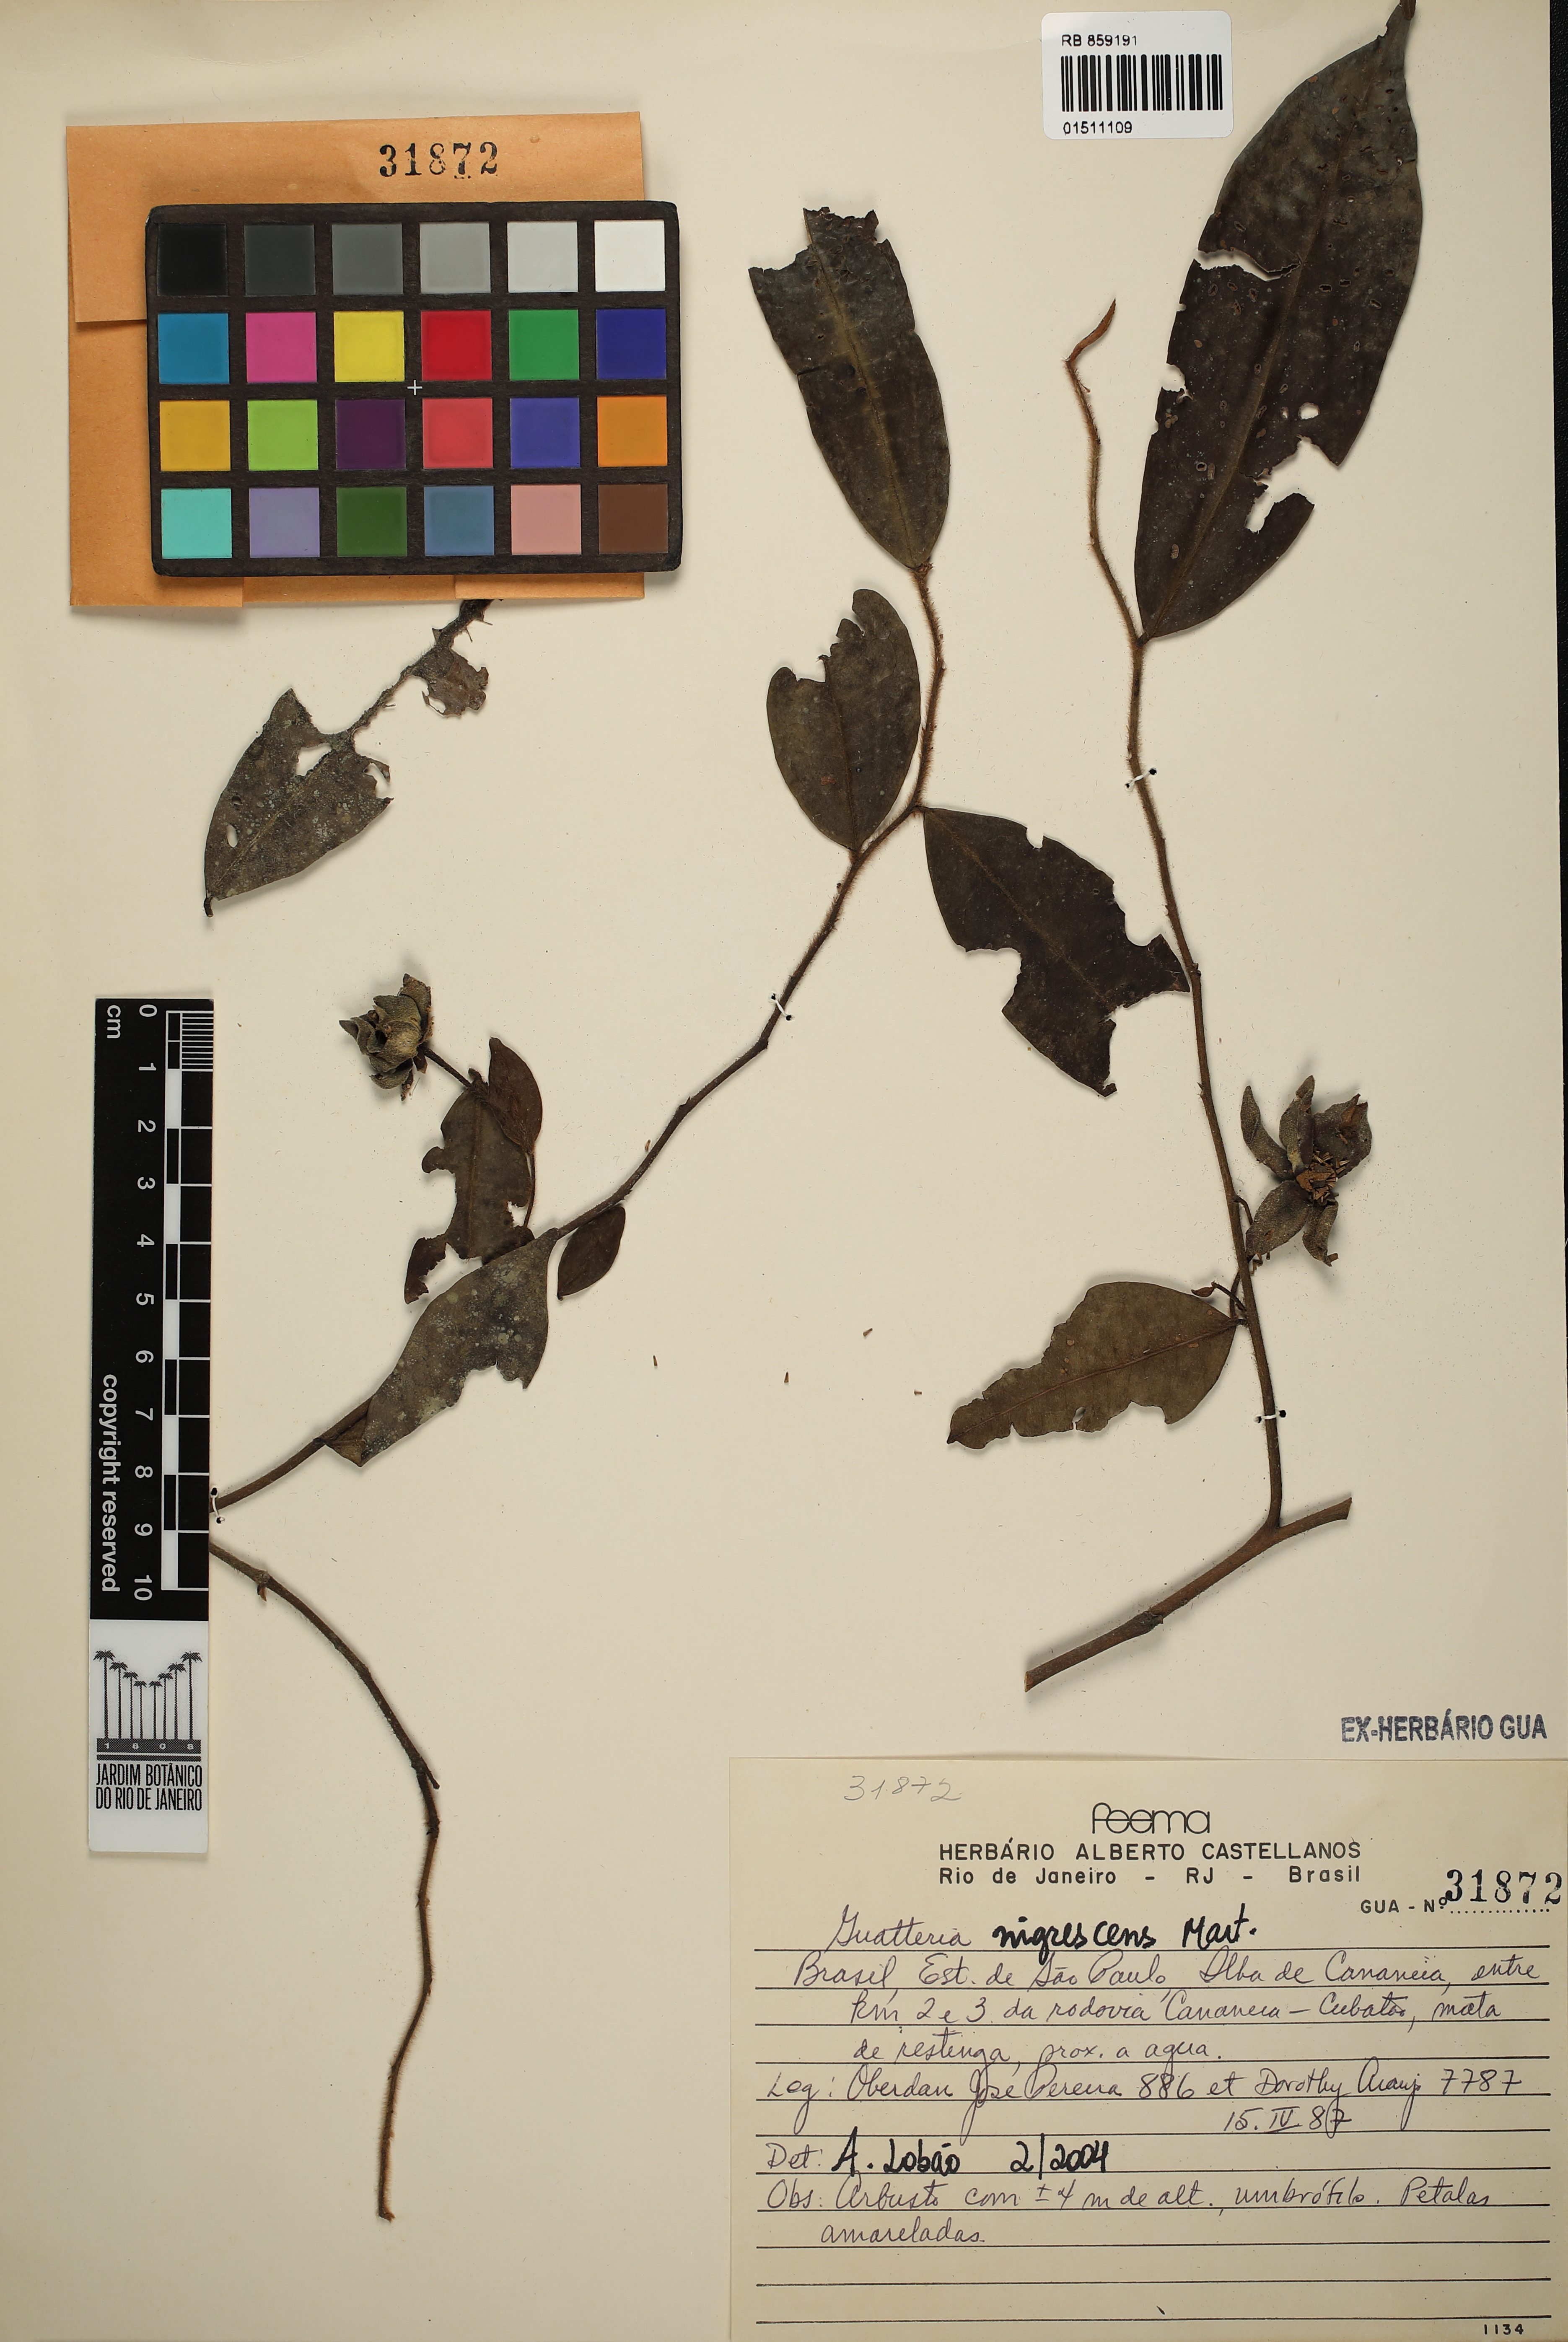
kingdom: Plantae
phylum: Tracheophyta
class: Magnoliopsida
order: Magnoliales
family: Annonaceae
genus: Guatteria
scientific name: Guatteria australis
